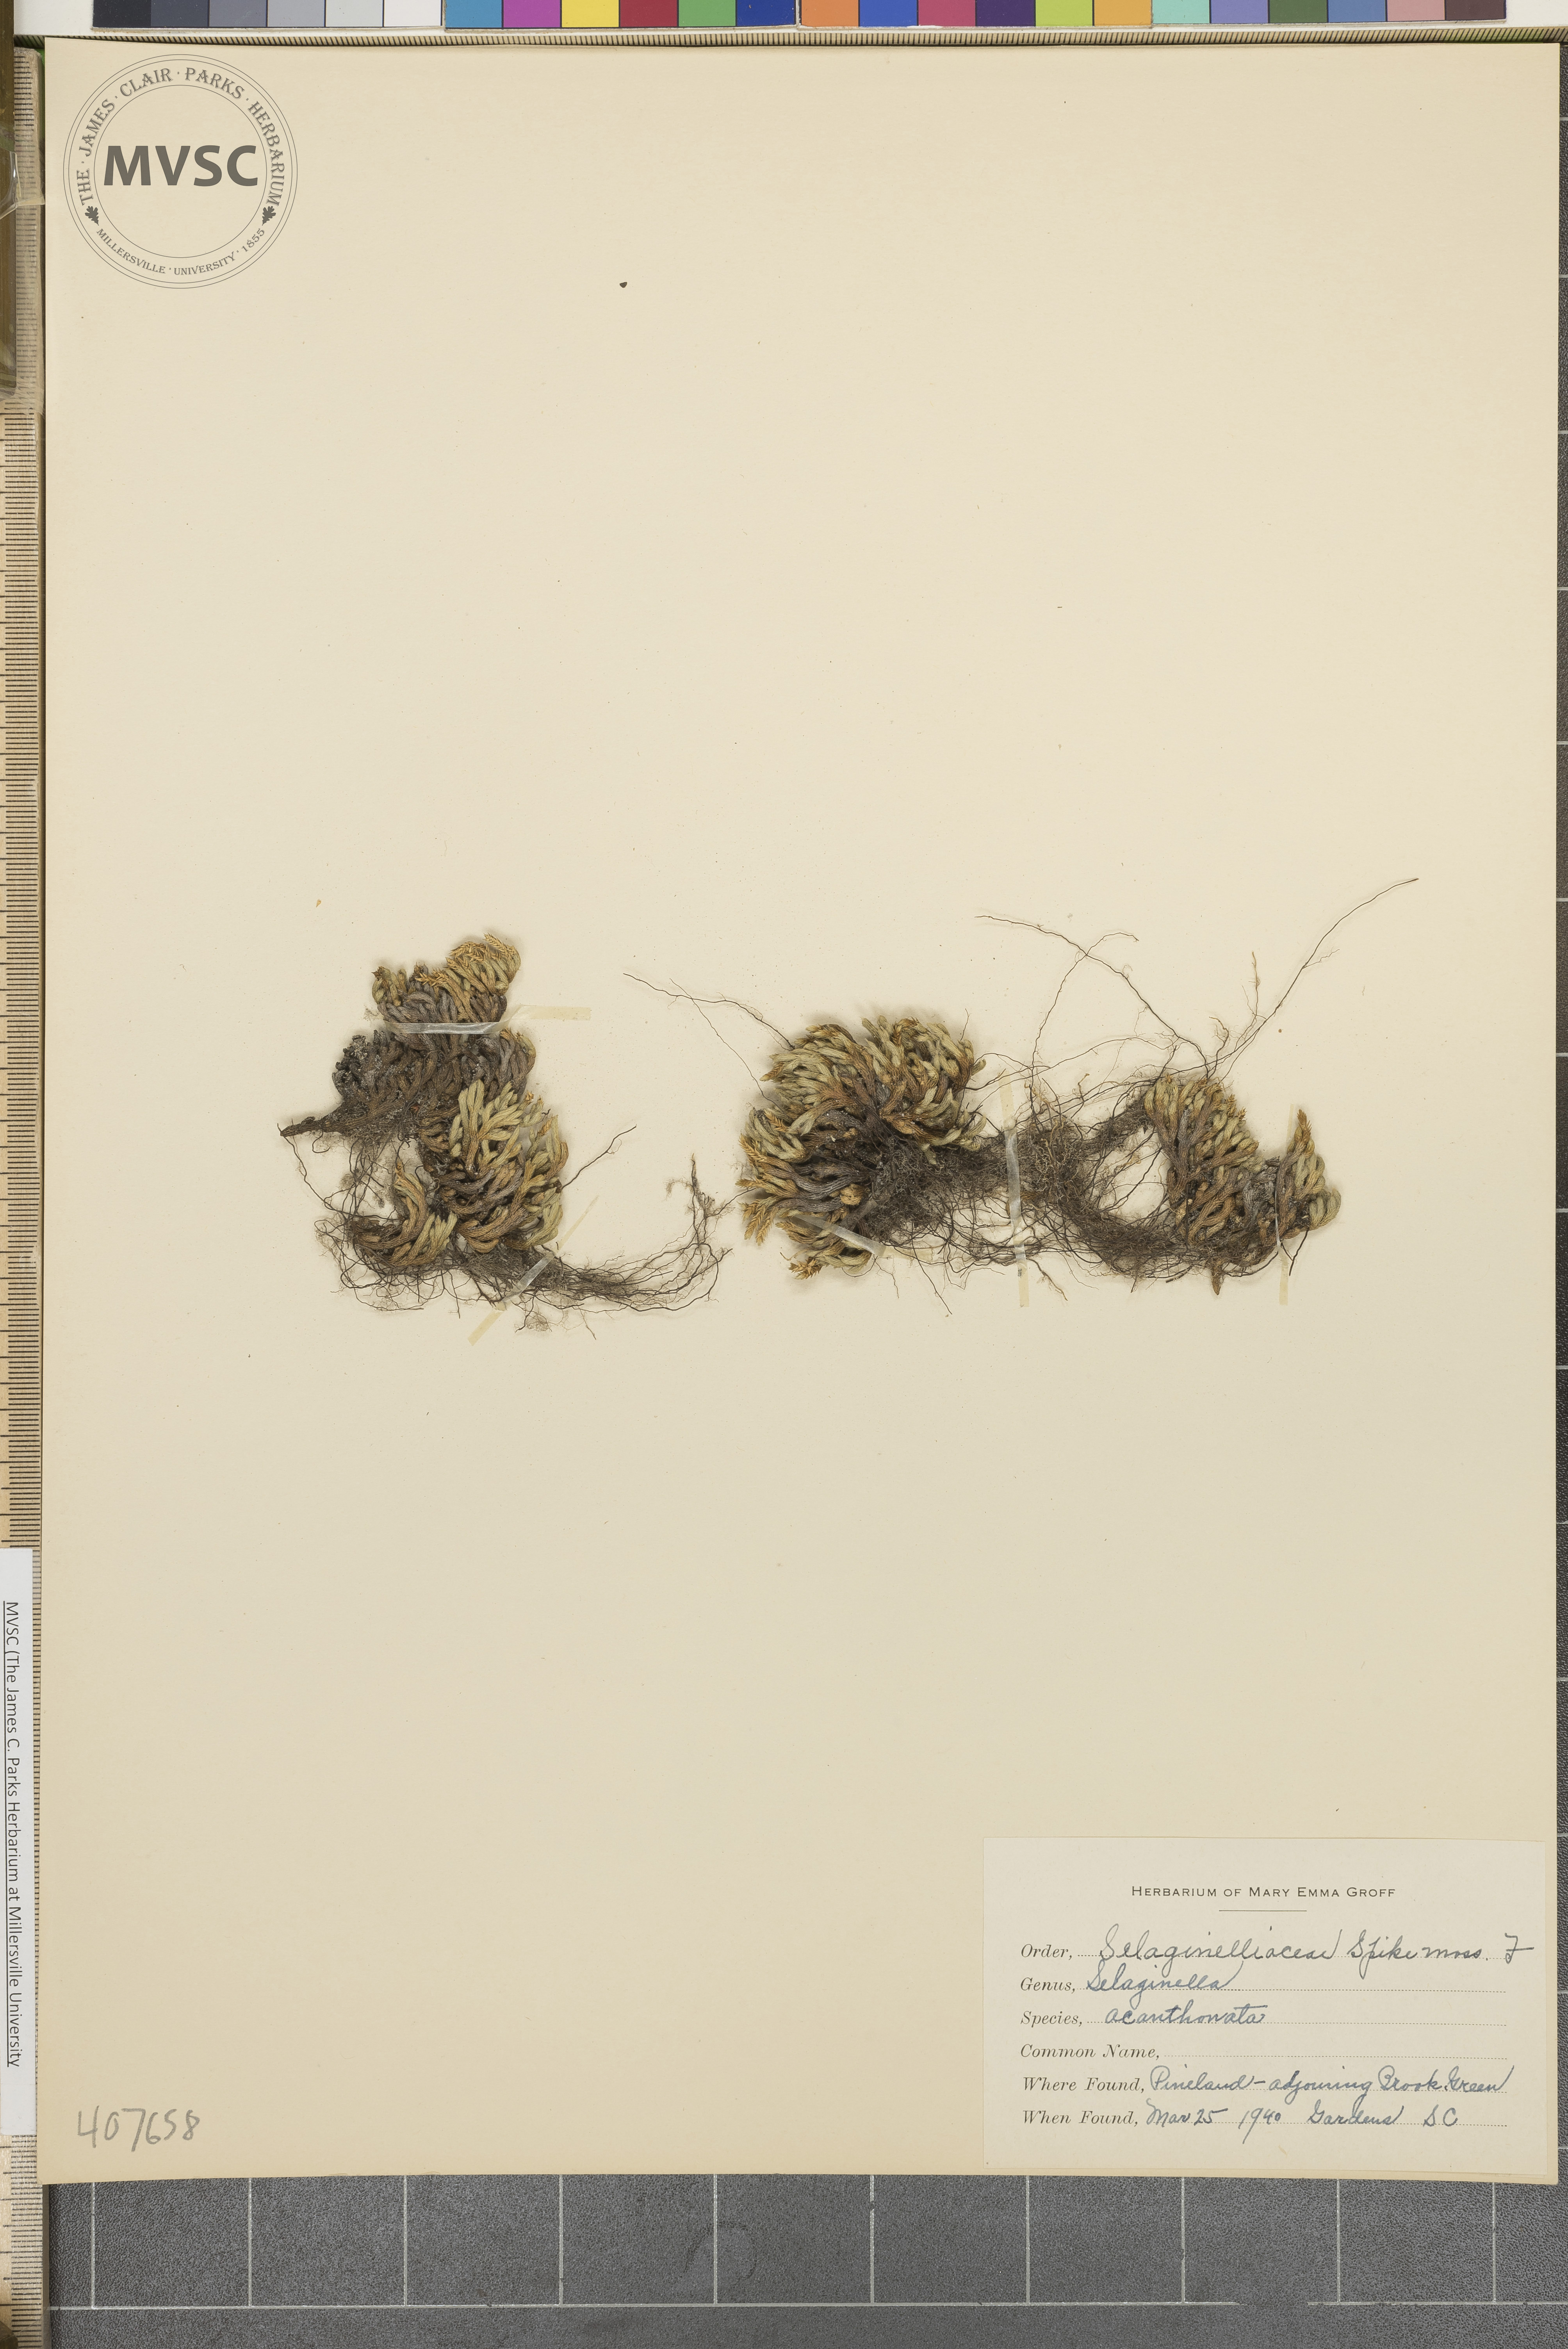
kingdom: Plantae
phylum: Tracheophyta
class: Lycopodiopsida
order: Selaginellales
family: Selaginellaceae
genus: Selaginella
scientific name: Selaginella acanthonota
